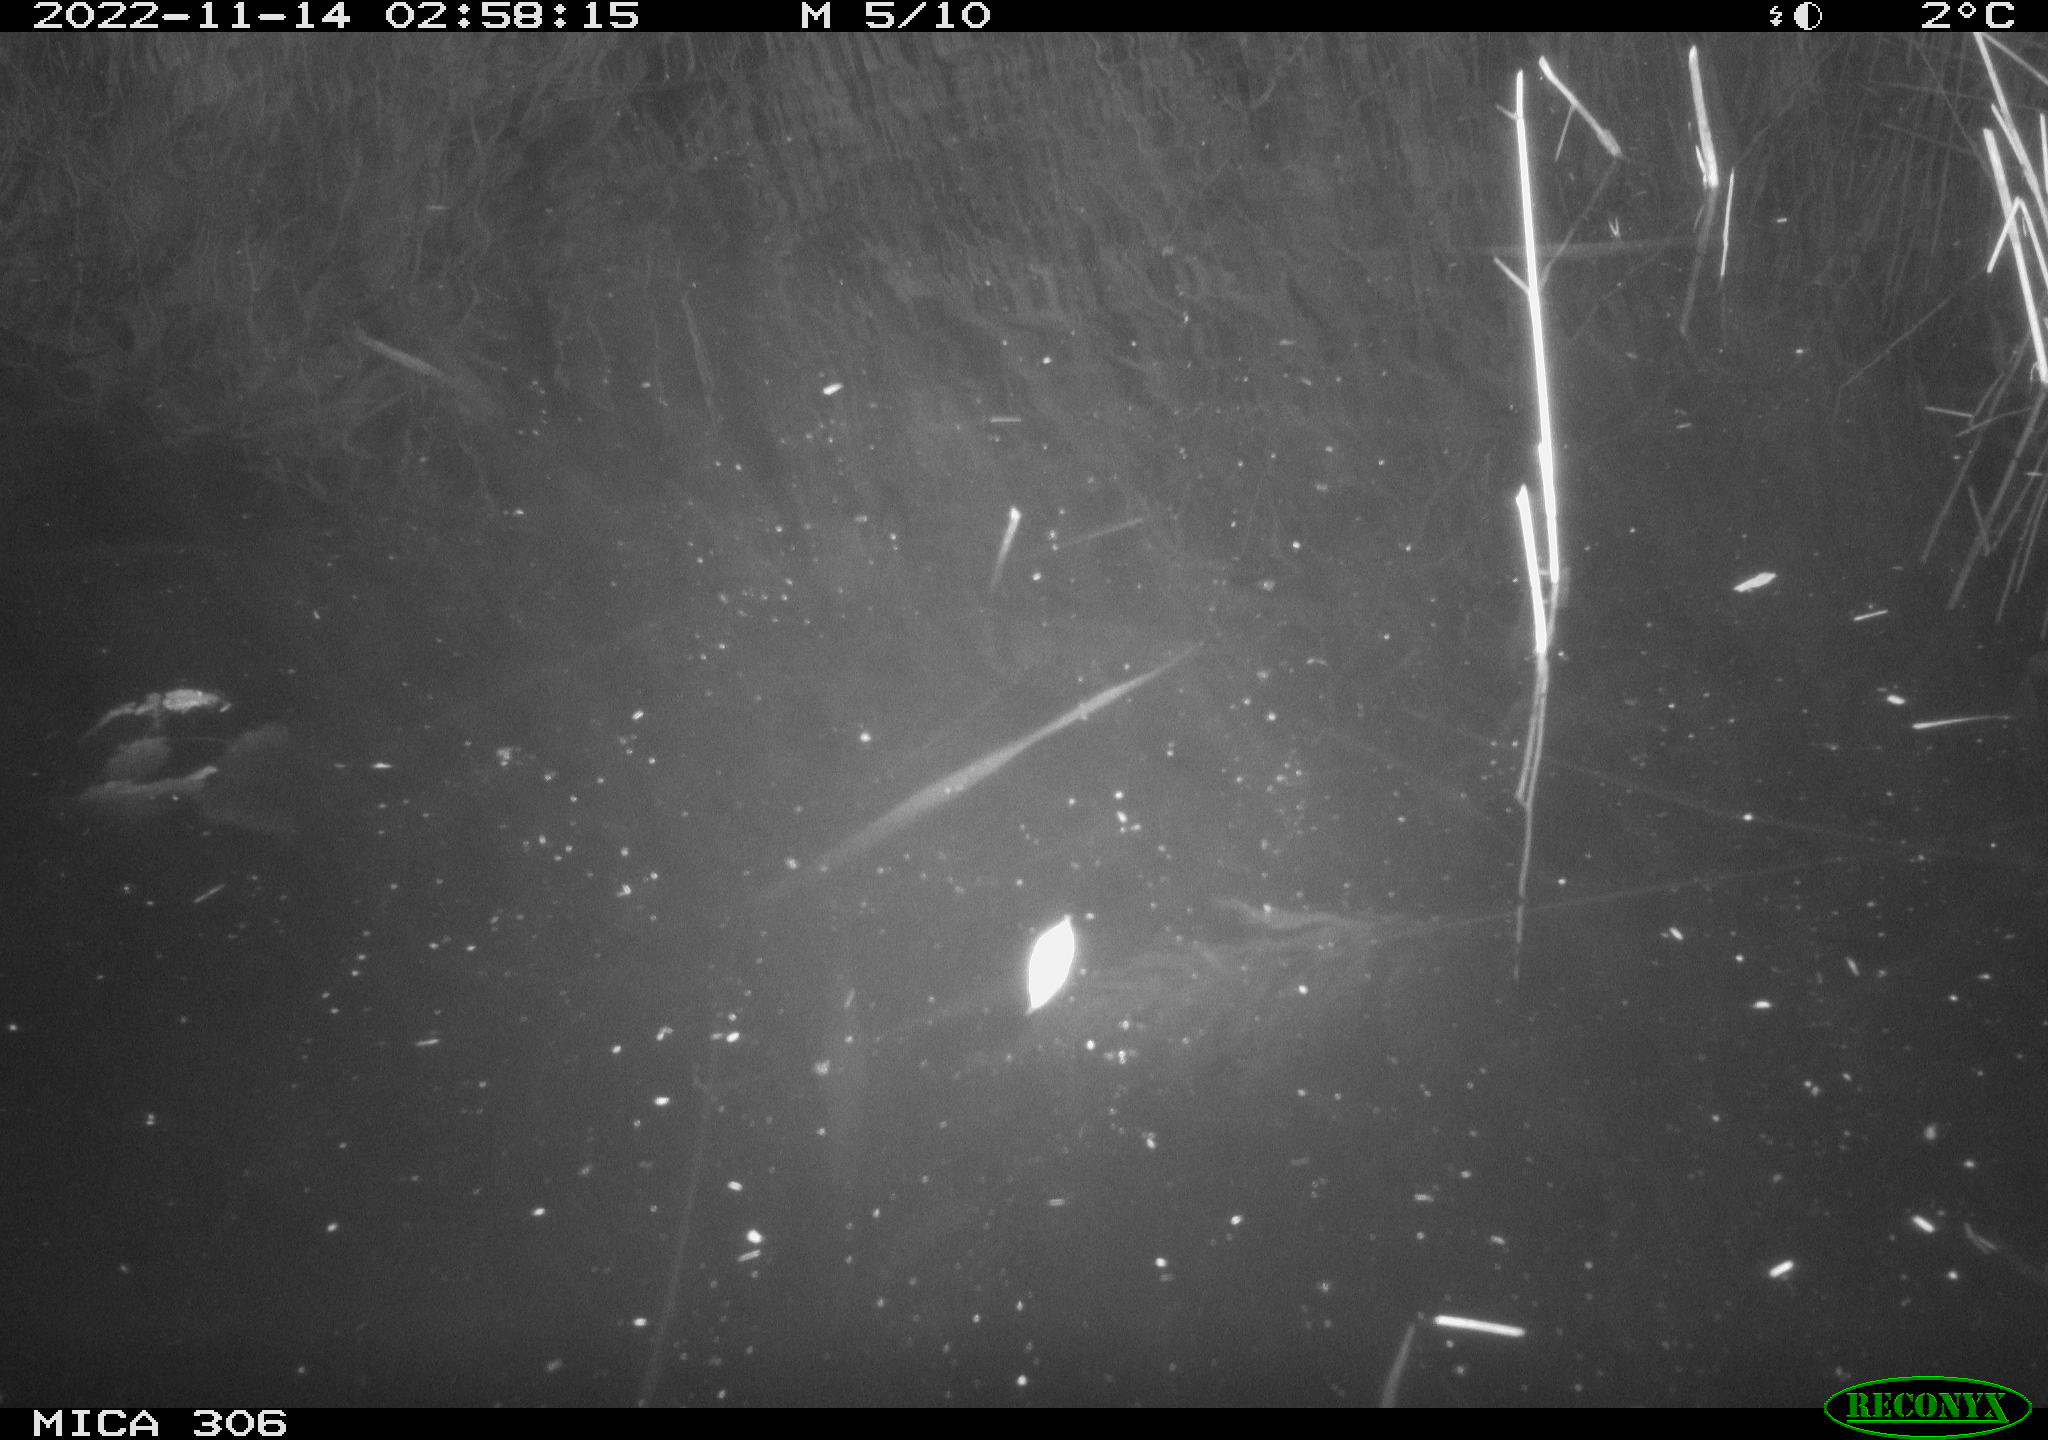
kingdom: Animalia
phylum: Chordata
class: Mammalia
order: Rodentia
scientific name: Rodentia
